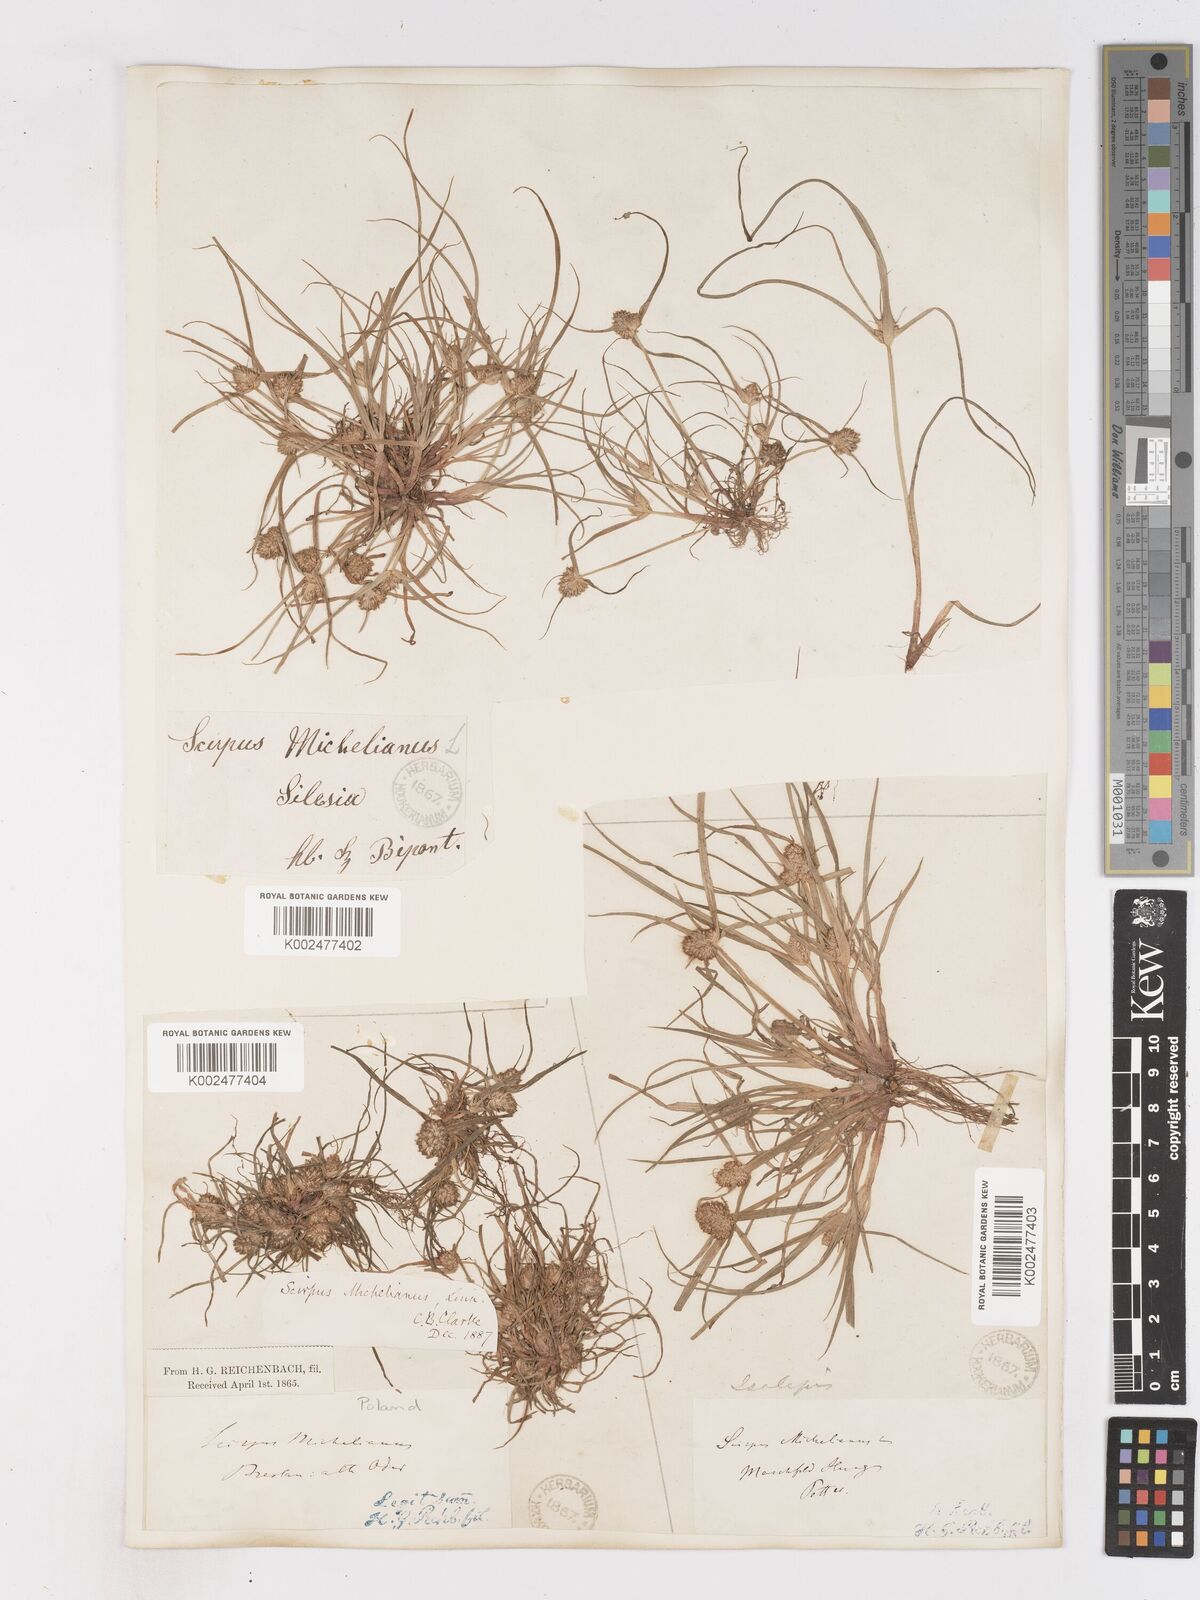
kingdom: Plantae
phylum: Tracheophyta
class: Liliopsida
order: Poales
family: Cyperaceae
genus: Cyperus
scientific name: Cyperus michelianus
